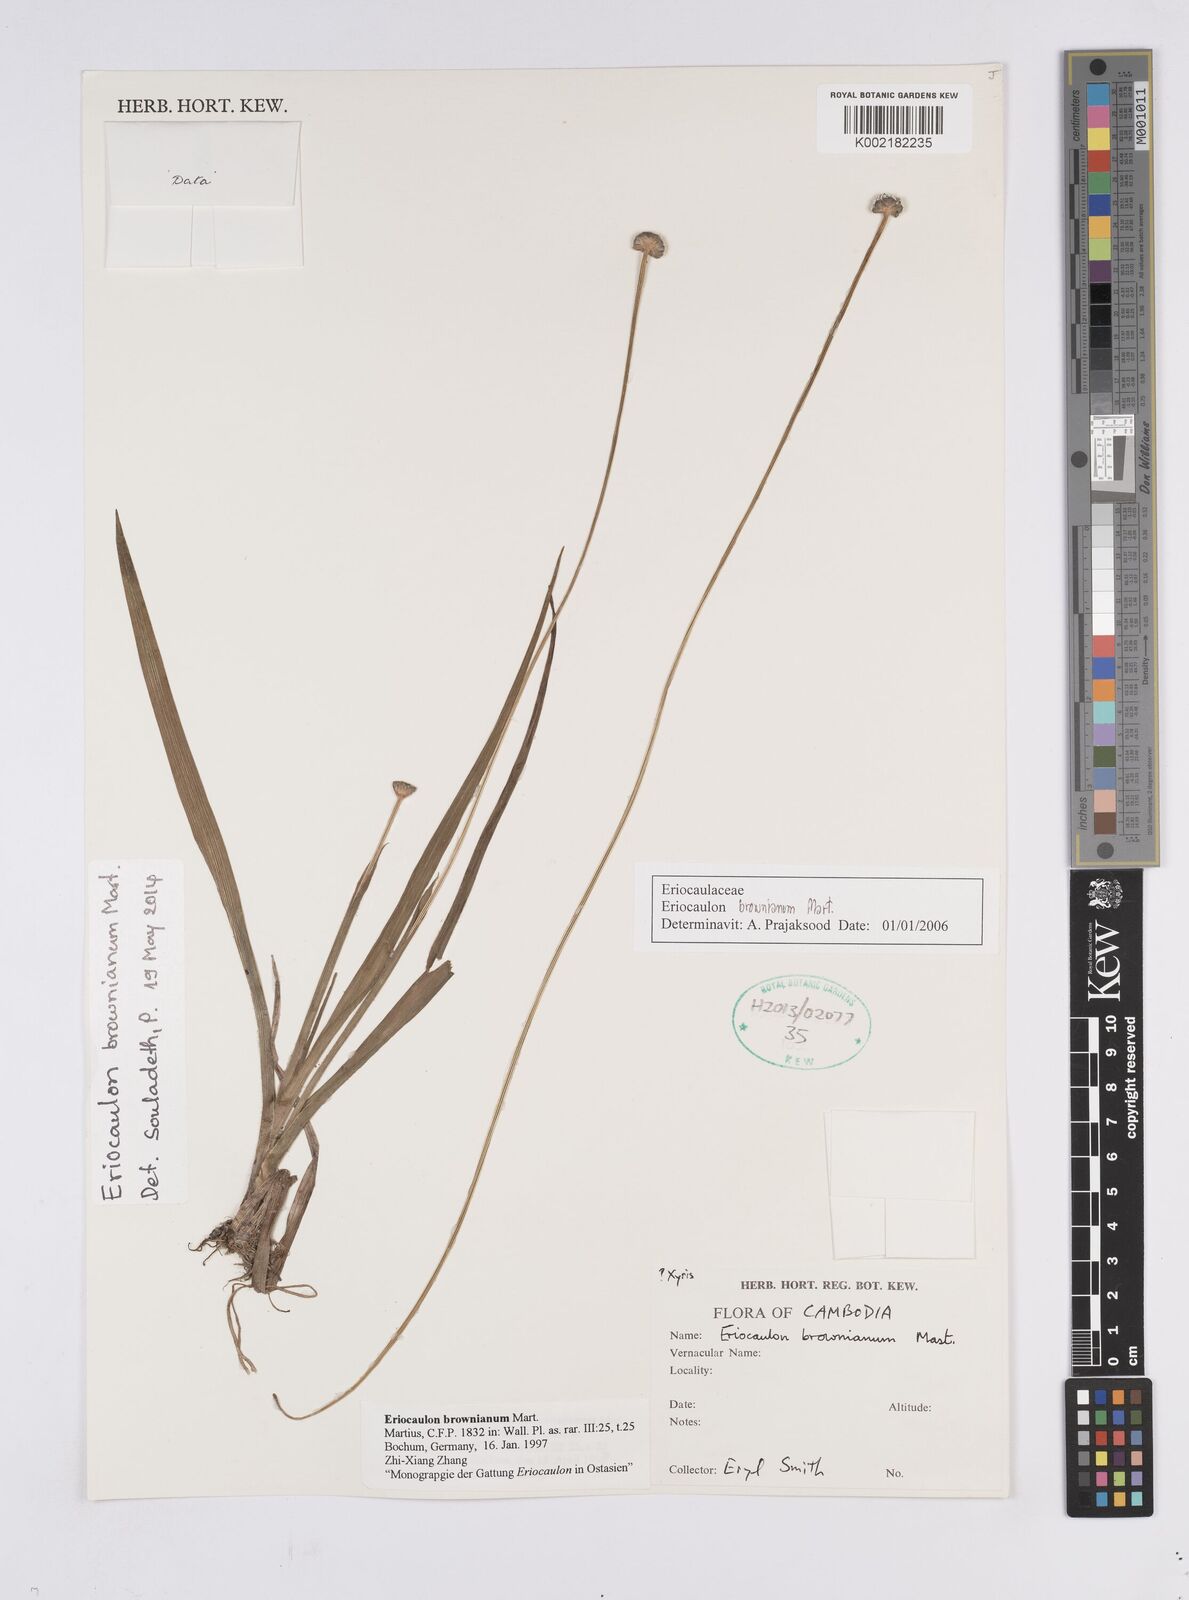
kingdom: Plantae
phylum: Tracheophyta
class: Liliopsida
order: Poales
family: Eriocaulaceae
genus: Eriocaulon
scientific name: Eriocaulon brownianum
